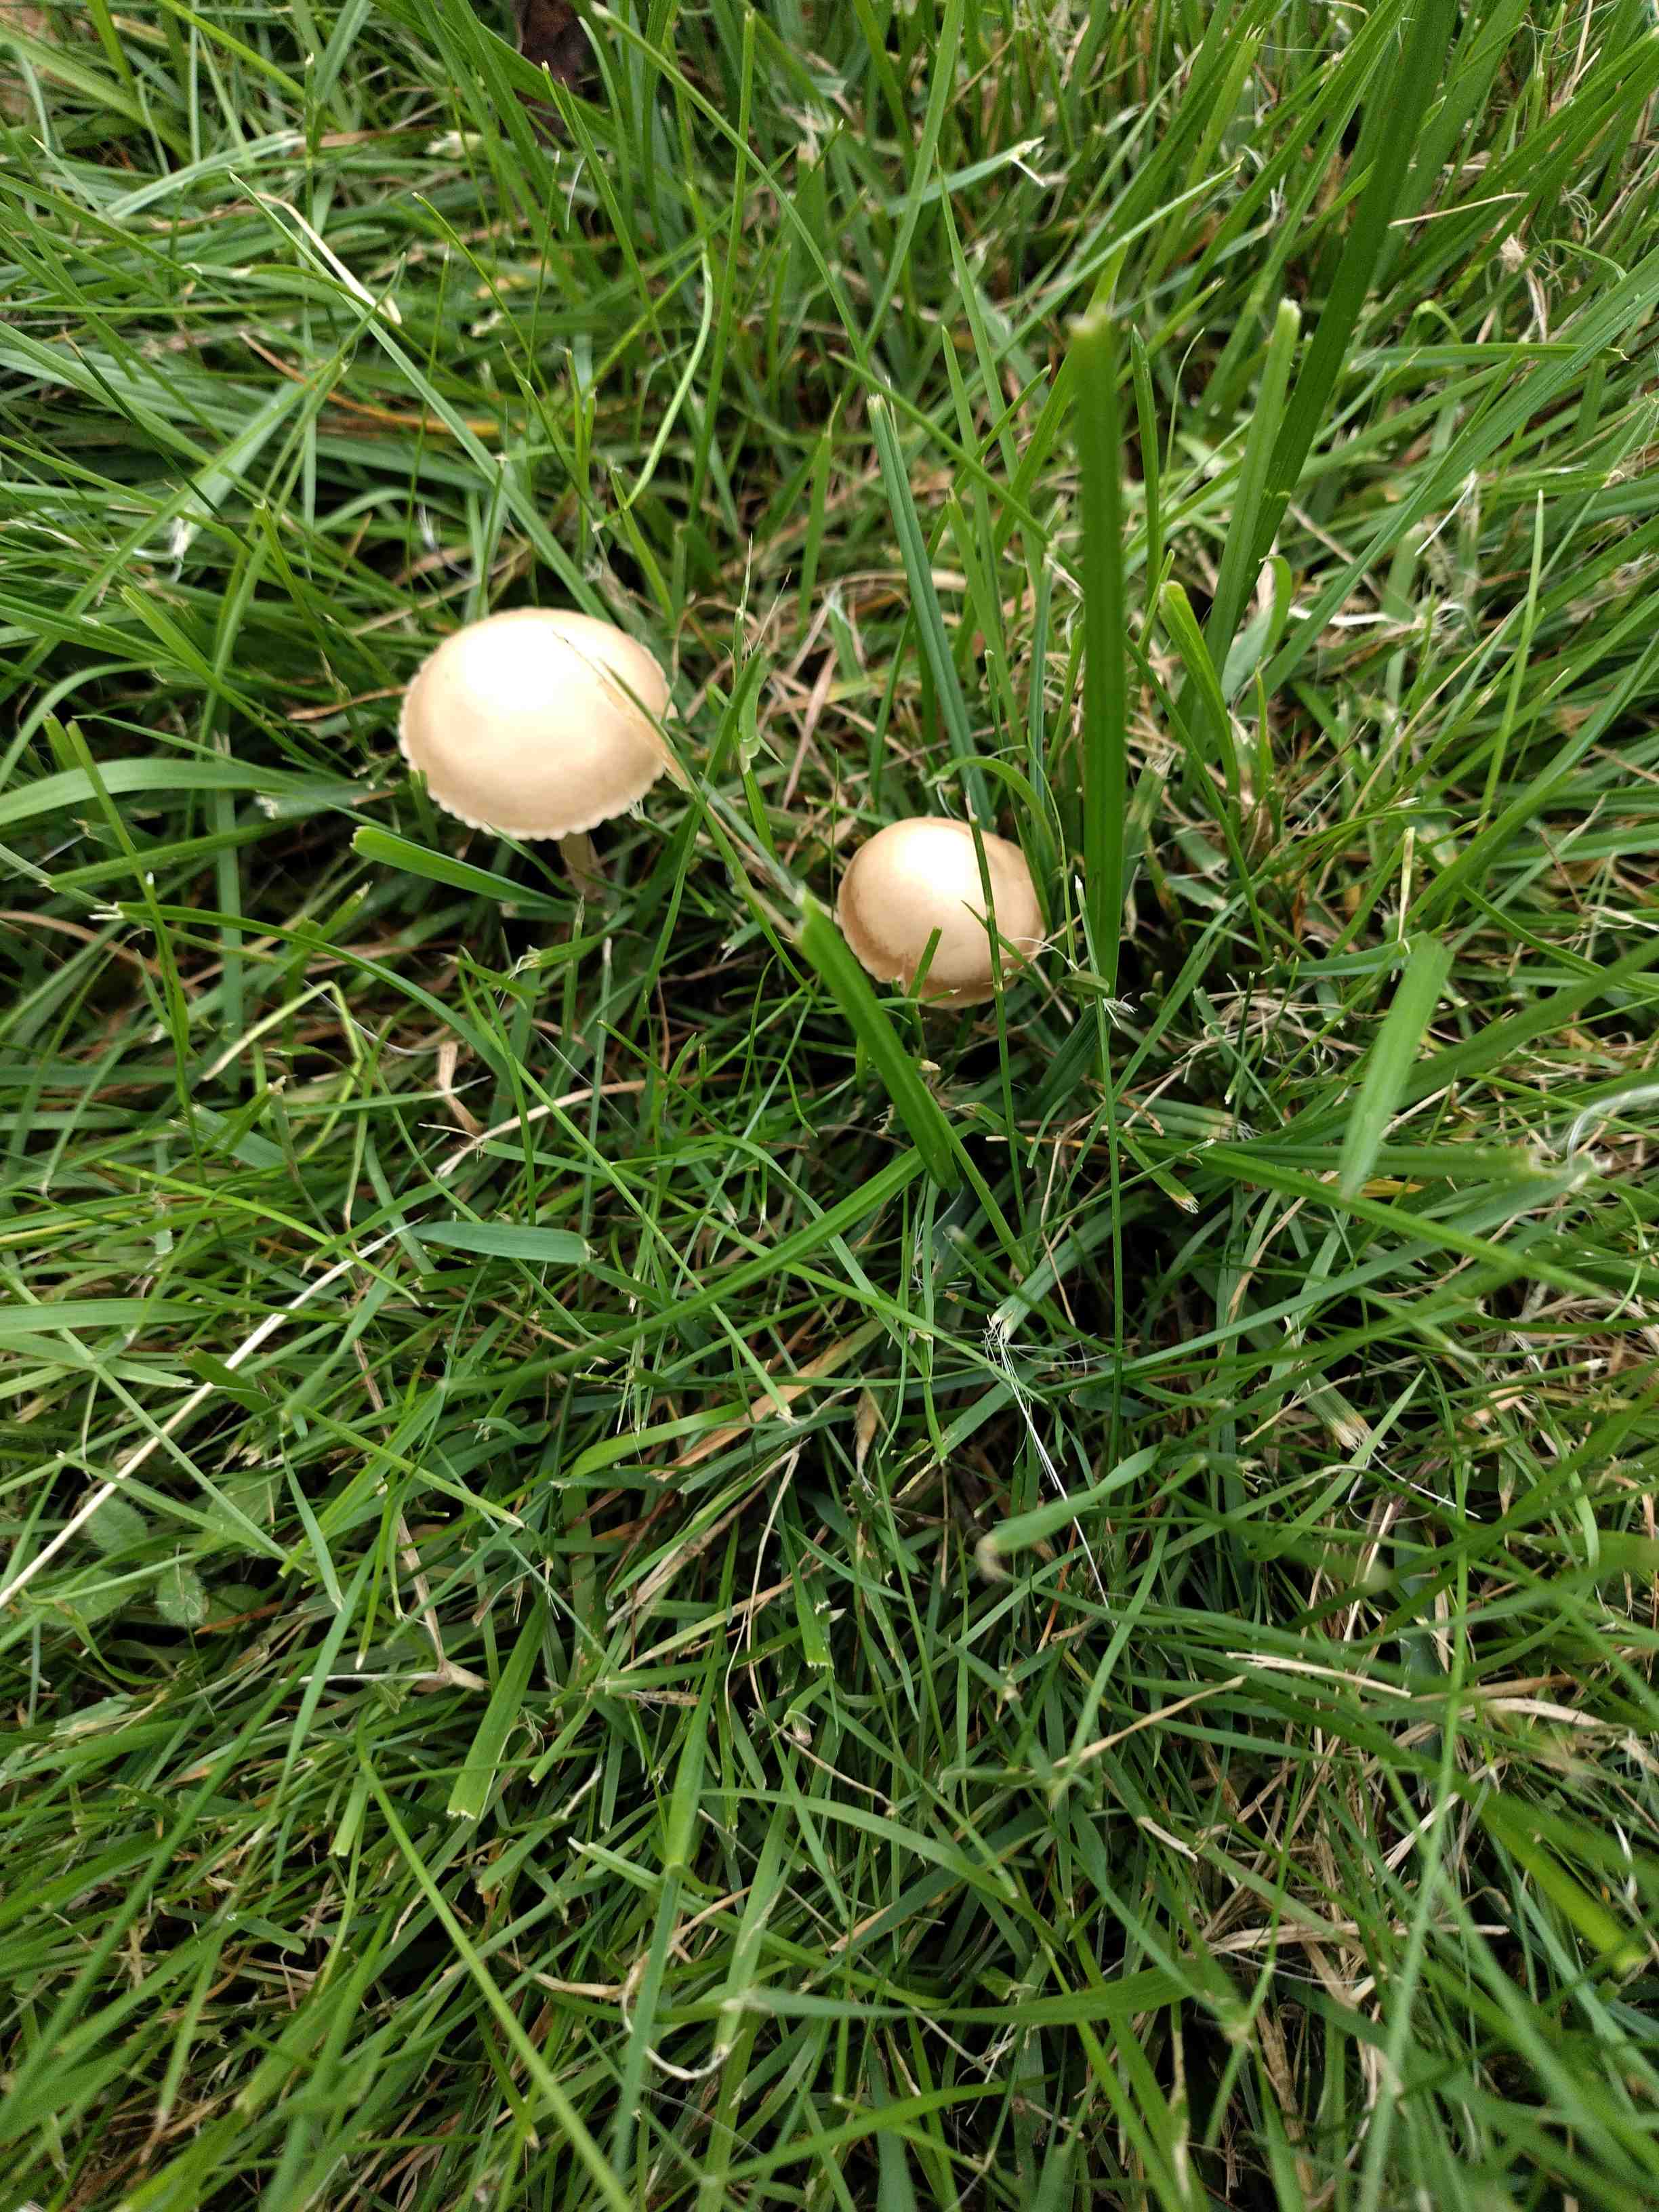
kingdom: Fungi
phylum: Basidiomycota
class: Agaricomycetes
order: Agaricales
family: Marasmiaceae
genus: Marasmius
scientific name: Marasmius oreades
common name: elledans-bruskhat
